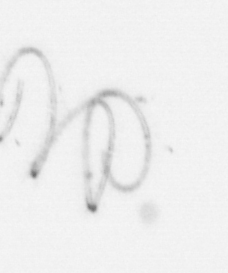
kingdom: Chromista
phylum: Ochrophyta
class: Bacillariophyceae
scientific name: Bacillariophyceae
